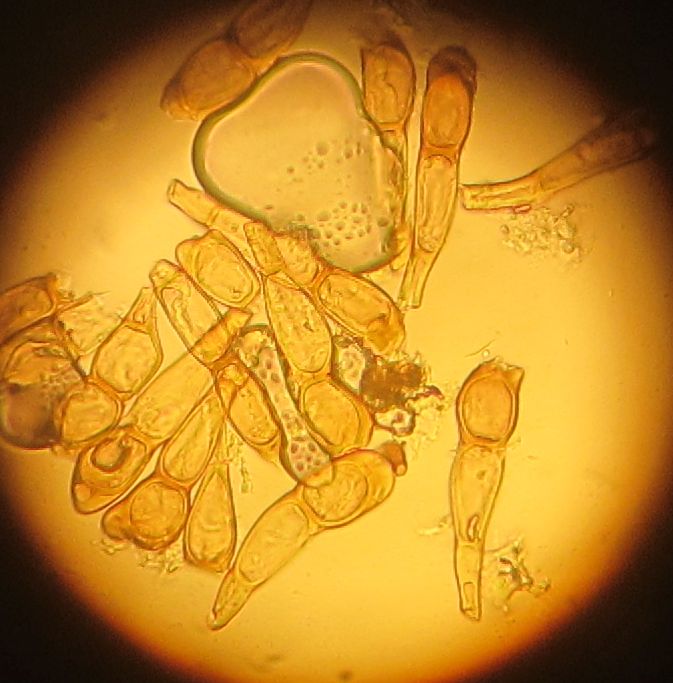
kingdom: Fungi
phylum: Basidiomycota
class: Pucciniomycetes
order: Pucciniales
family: Pucciniaceae
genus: Puccinia
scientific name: Puccinia caricina
